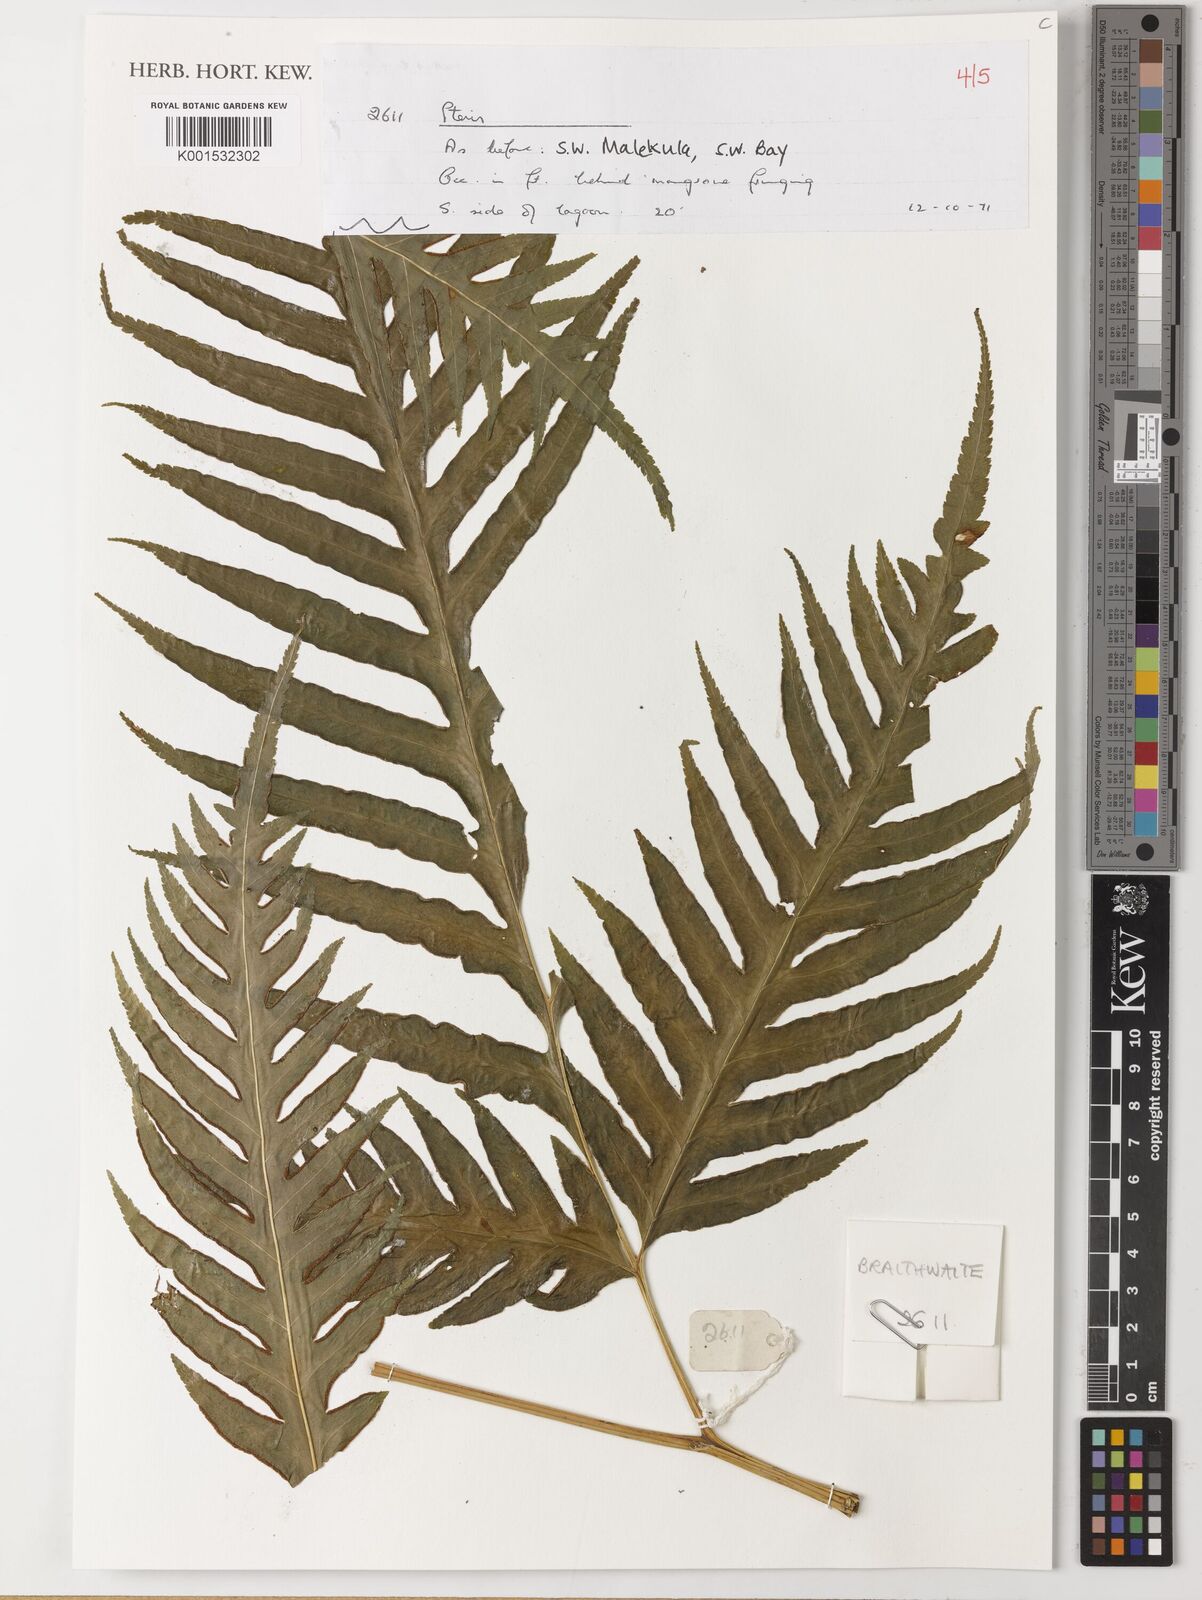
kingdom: Plantae
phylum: Tracheophyta
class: Polypodiopsida
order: Polypodiales
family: Pteridaceae
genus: Pteris
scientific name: Pteris
